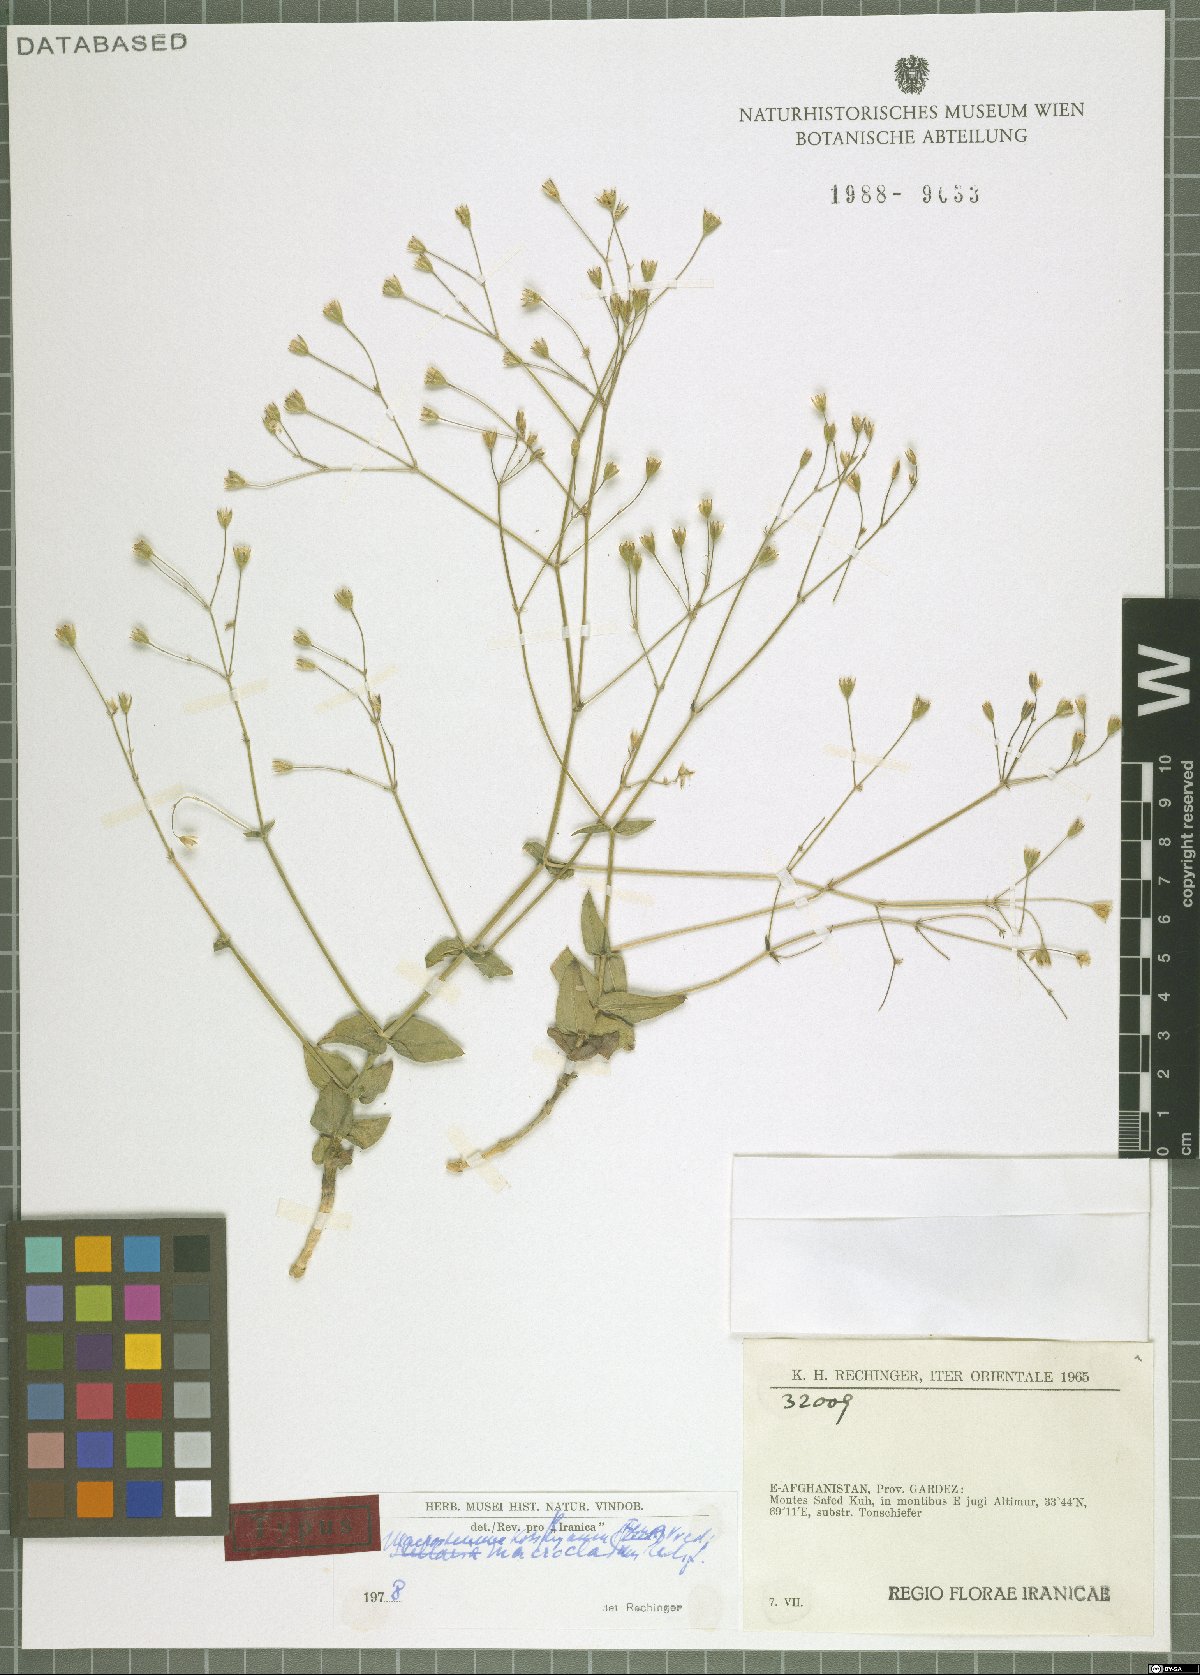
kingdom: Plantae
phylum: Tracheophyta
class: Magnoliopsida
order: Caryophyllales
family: Caryophyllaceae
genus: Mesostemma
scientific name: Mesostemma kotschyanum
